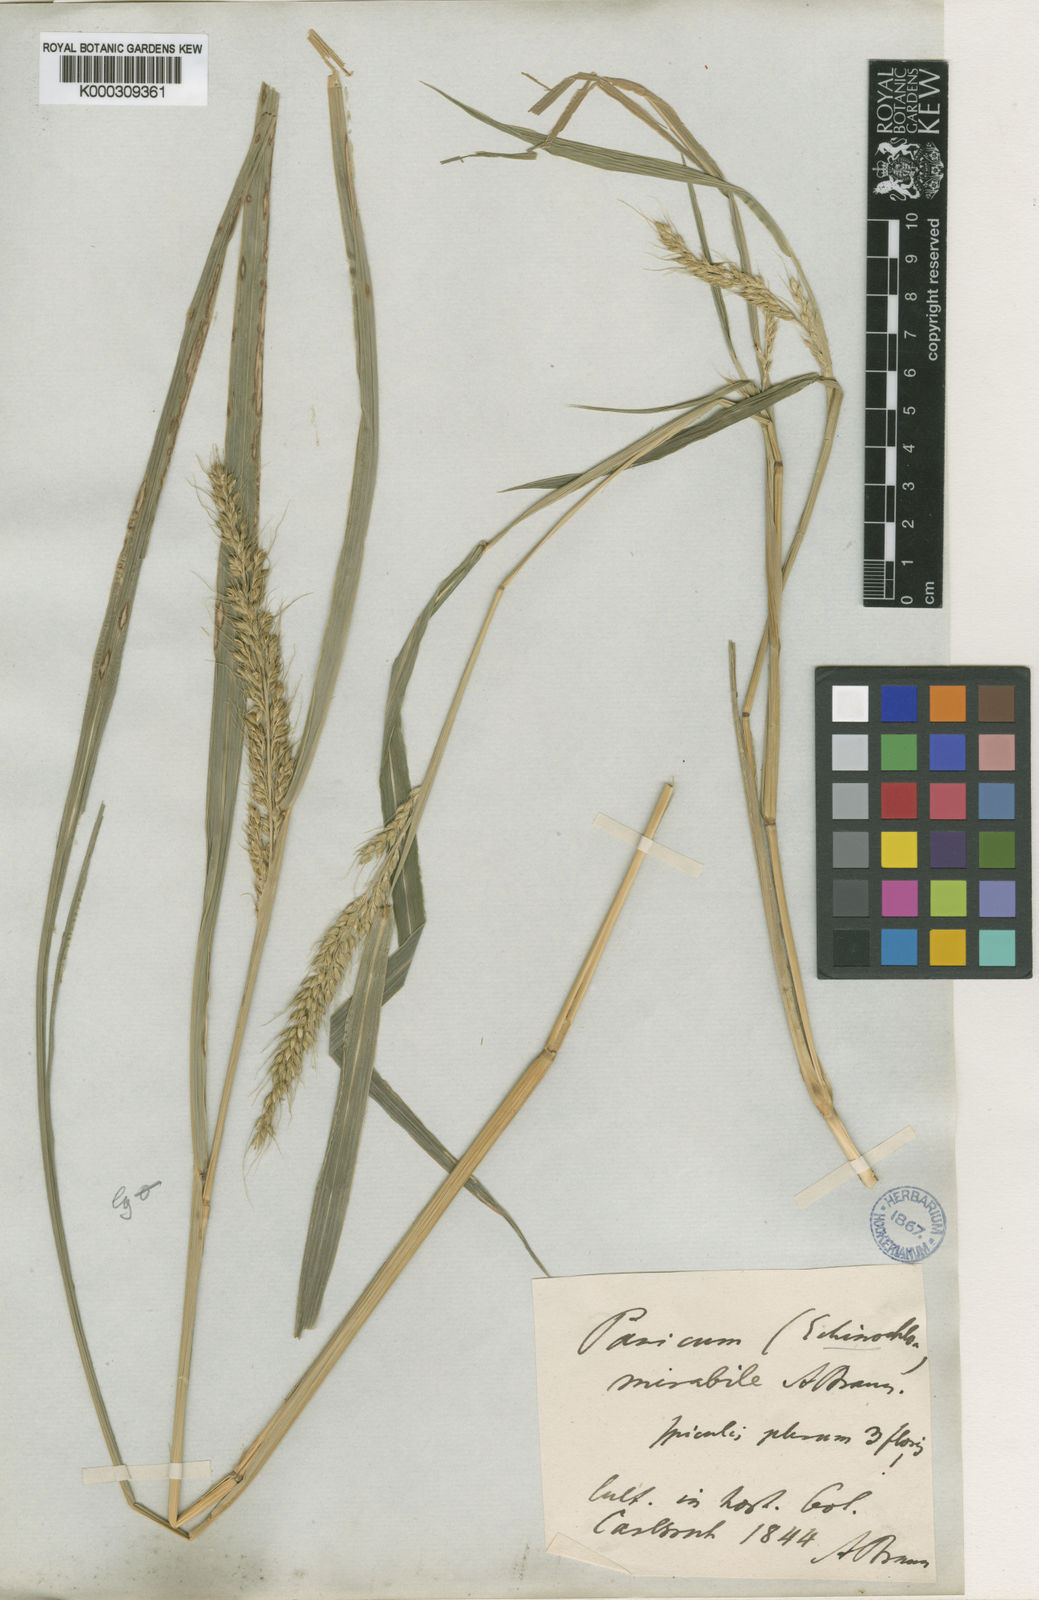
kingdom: Plantae
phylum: Tracheophyta
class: Liliopsida
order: Poales
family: Poaceae
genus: Echinochloa
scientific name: Echinochloa oryzoides
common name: Early water grass
